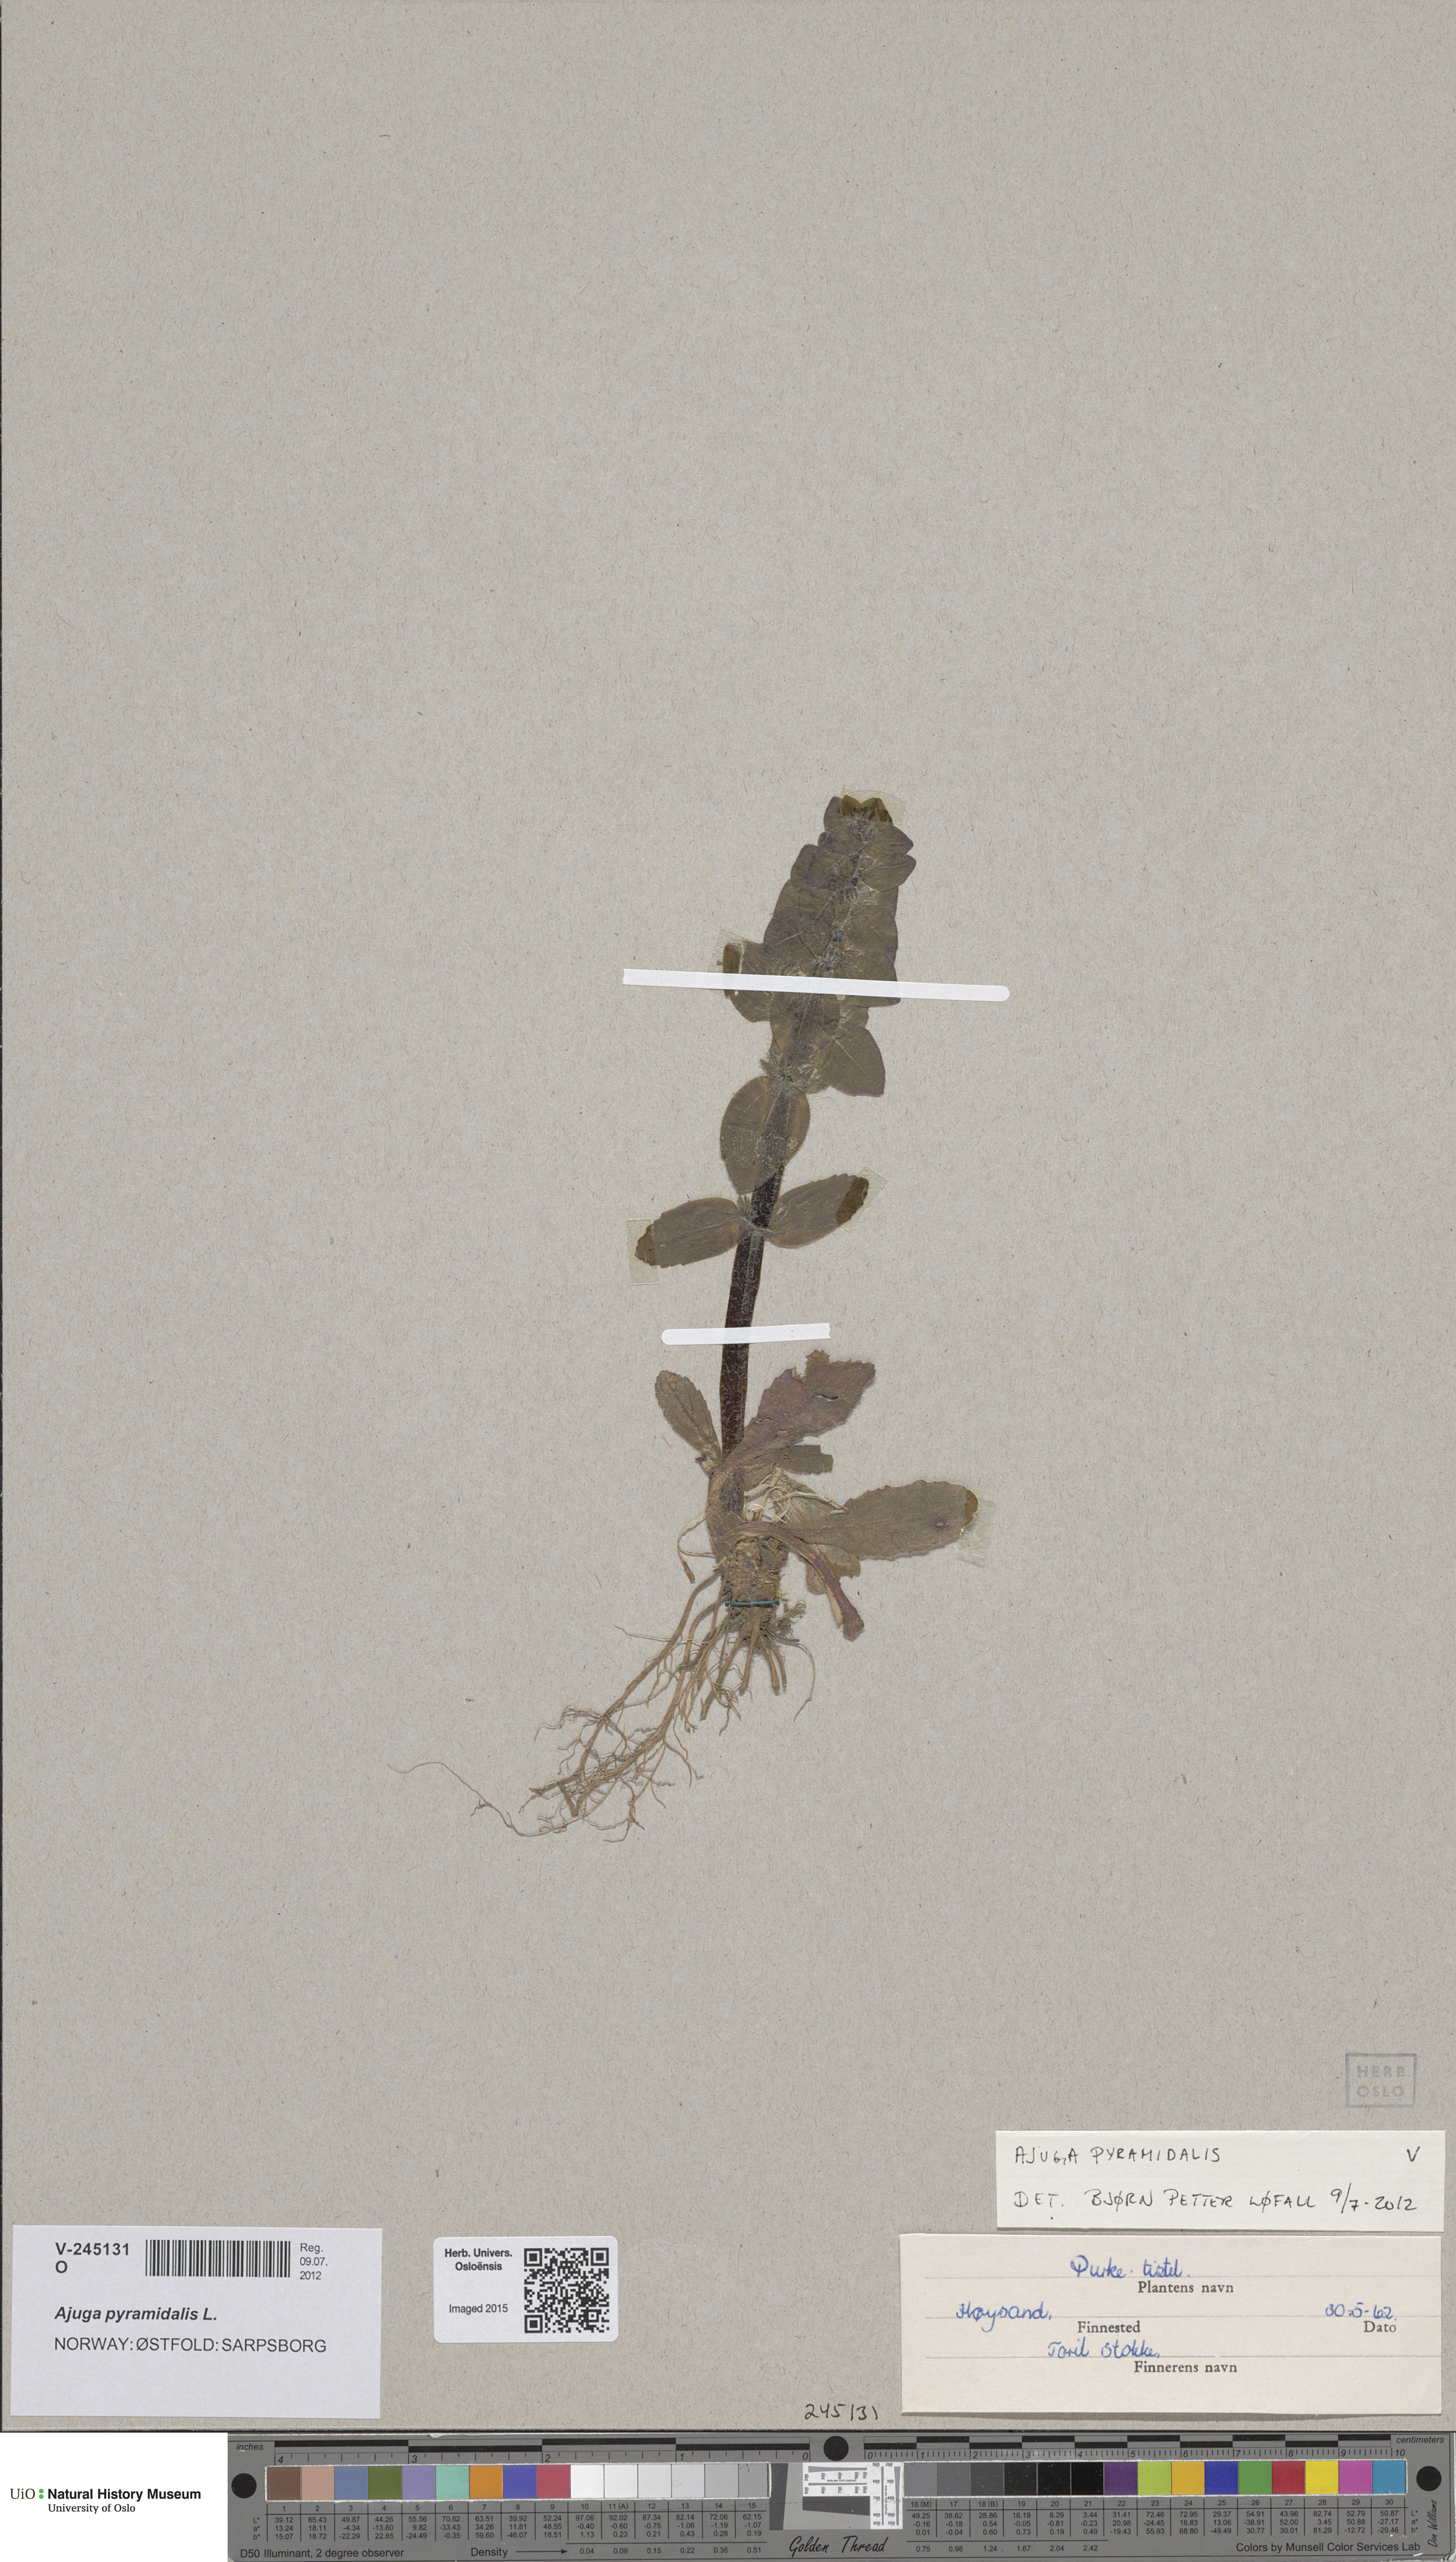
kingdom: Plantae
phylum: Tracheophyta
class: Magnoliopsida
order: Lamiales
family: Lamiaceae
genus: Ajuga
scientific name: Ajuga pyramidalis
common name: Pyramid bugle
